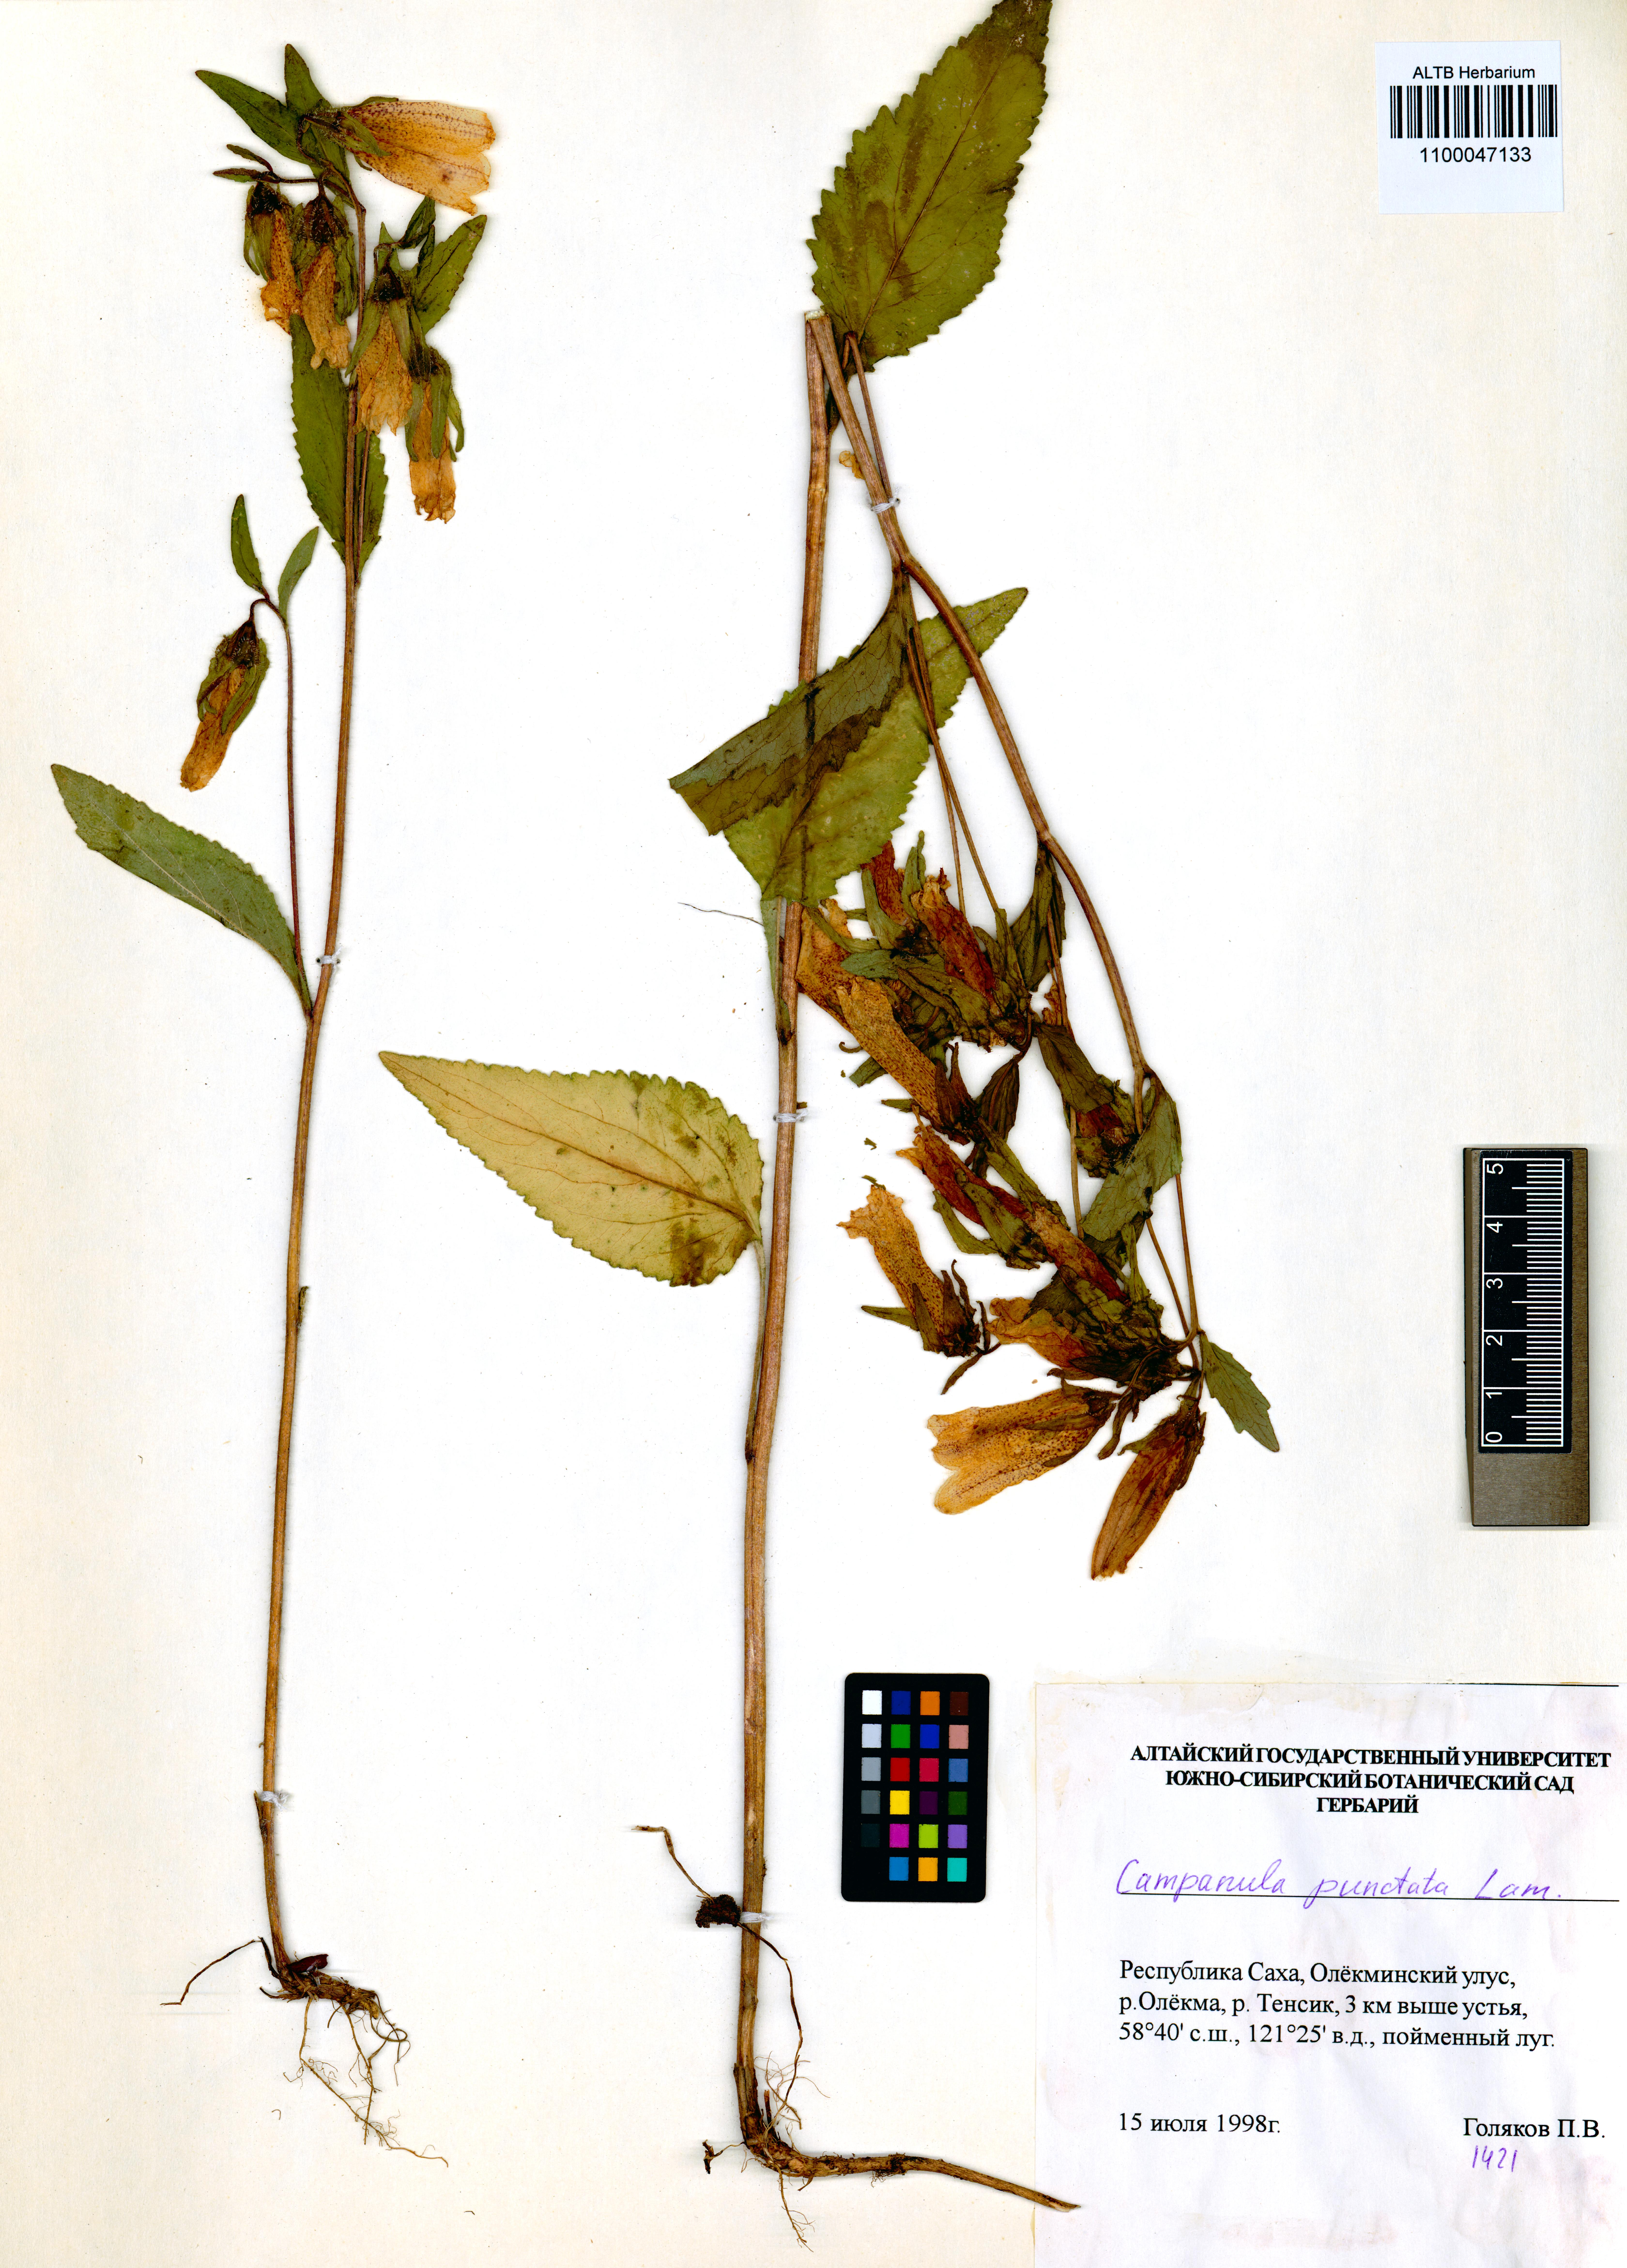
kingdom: Plantae
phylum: Tracheophyta
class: Magnoliopsida
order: Asterales
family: Campanulaceae
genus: Campanula
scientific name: Campanula punctata
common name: Spotted bellflower
